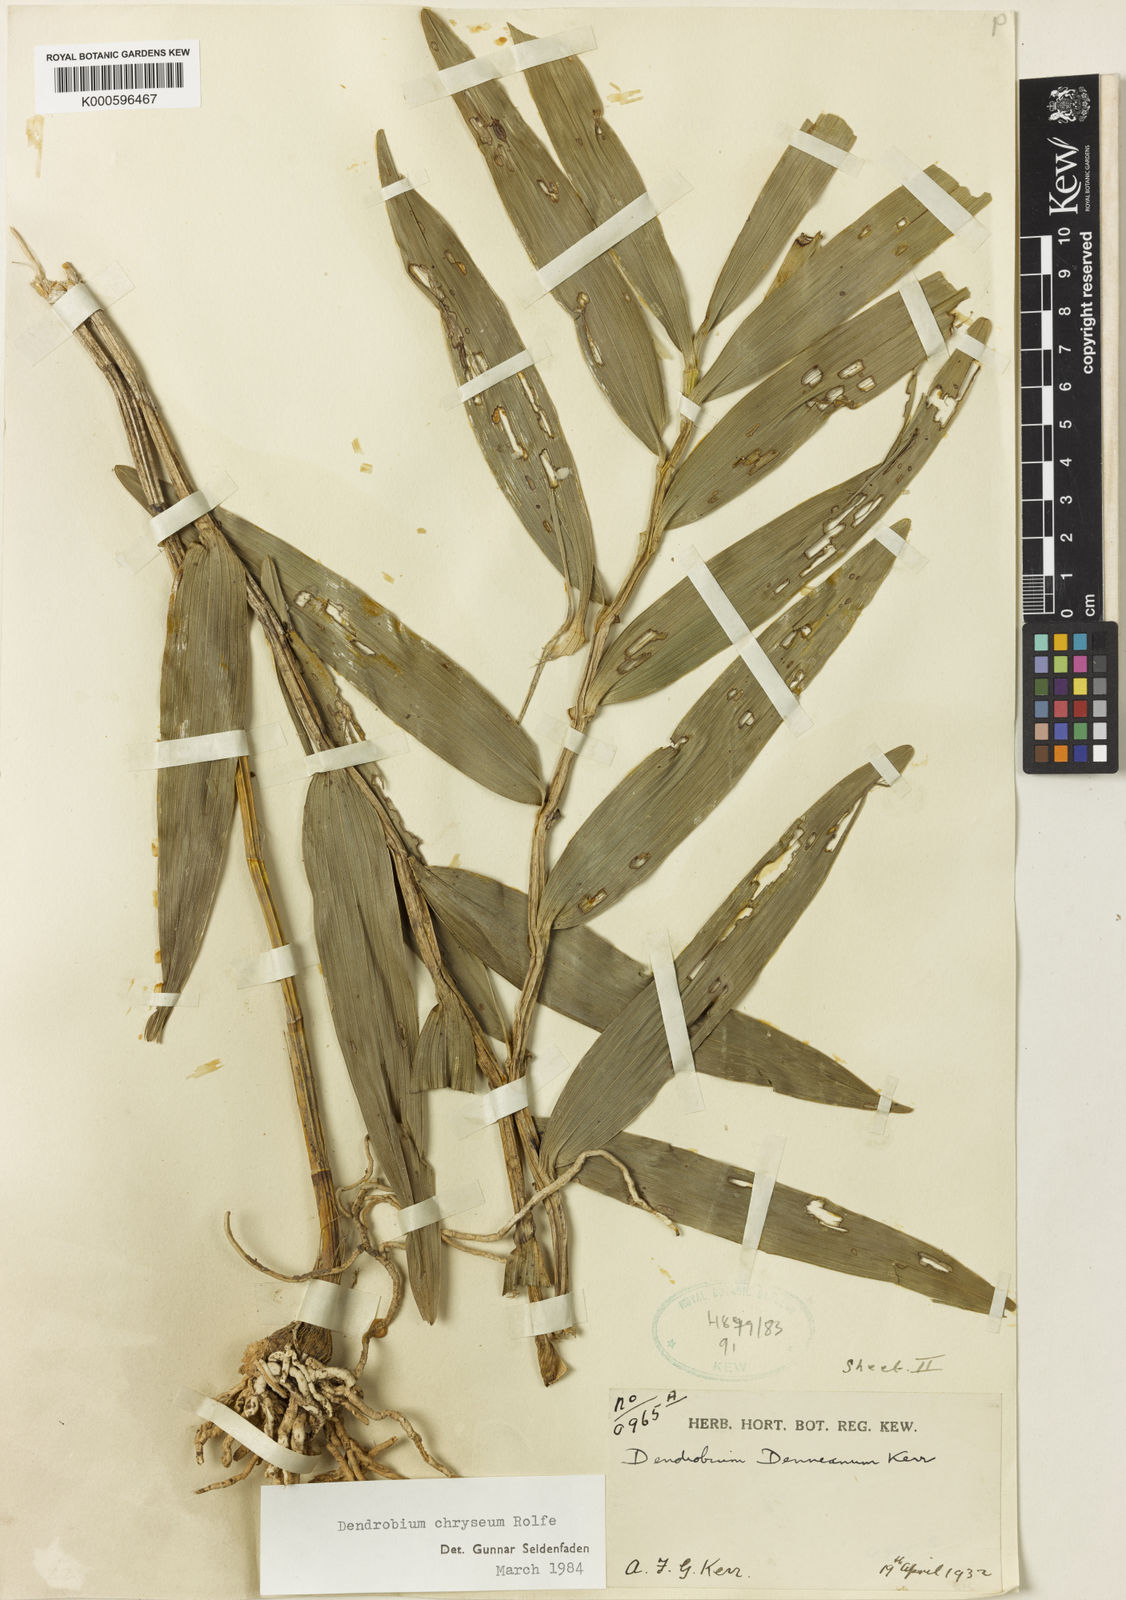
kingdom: Plantae
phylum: Tracheophyta
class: Liliopsida
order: Asparagales
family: Orchidaceae
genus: Dendrobium
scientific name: Dendrobium chryseum
